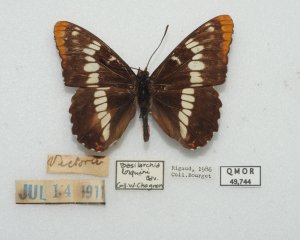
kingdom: Animalia
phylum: Arthropoda
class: Insecta
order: Lepidoptera
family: Nymphalidae
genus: Limenitis
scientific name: Limenitis lorquini
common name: Lorquin's Admiral
